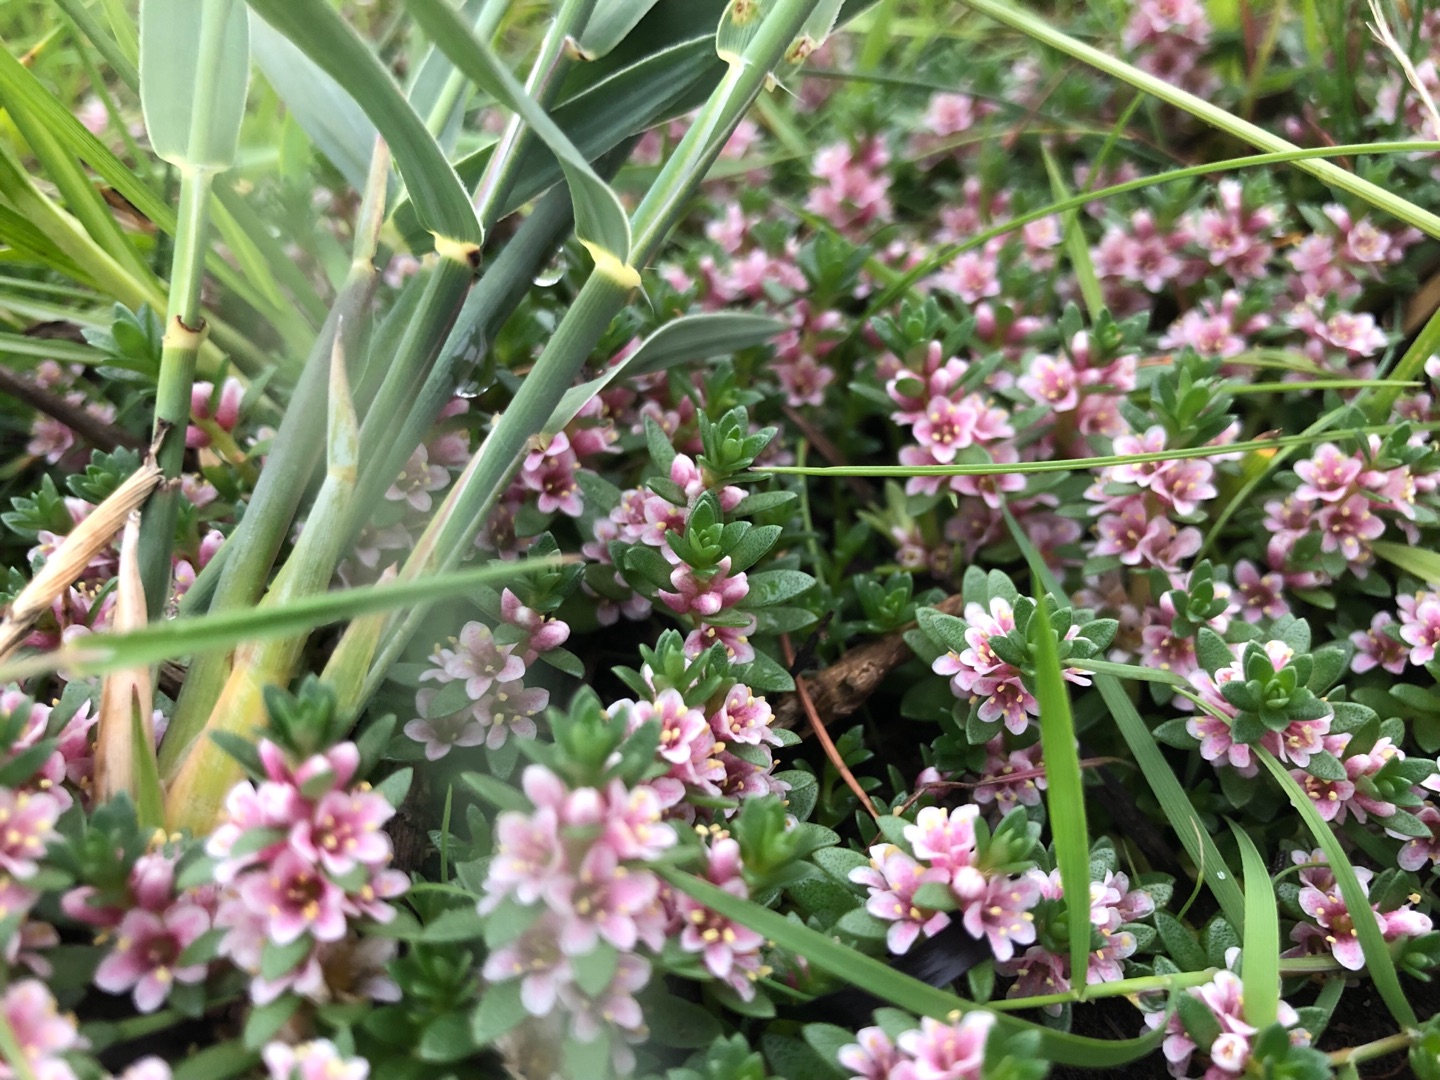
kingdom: Plantae
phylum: Tracheophyta
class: Magnoliopsida
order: Ericales
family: Primulaceae
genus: Lysimachia
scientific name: Lysimachia maritima
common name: Sandkryb
